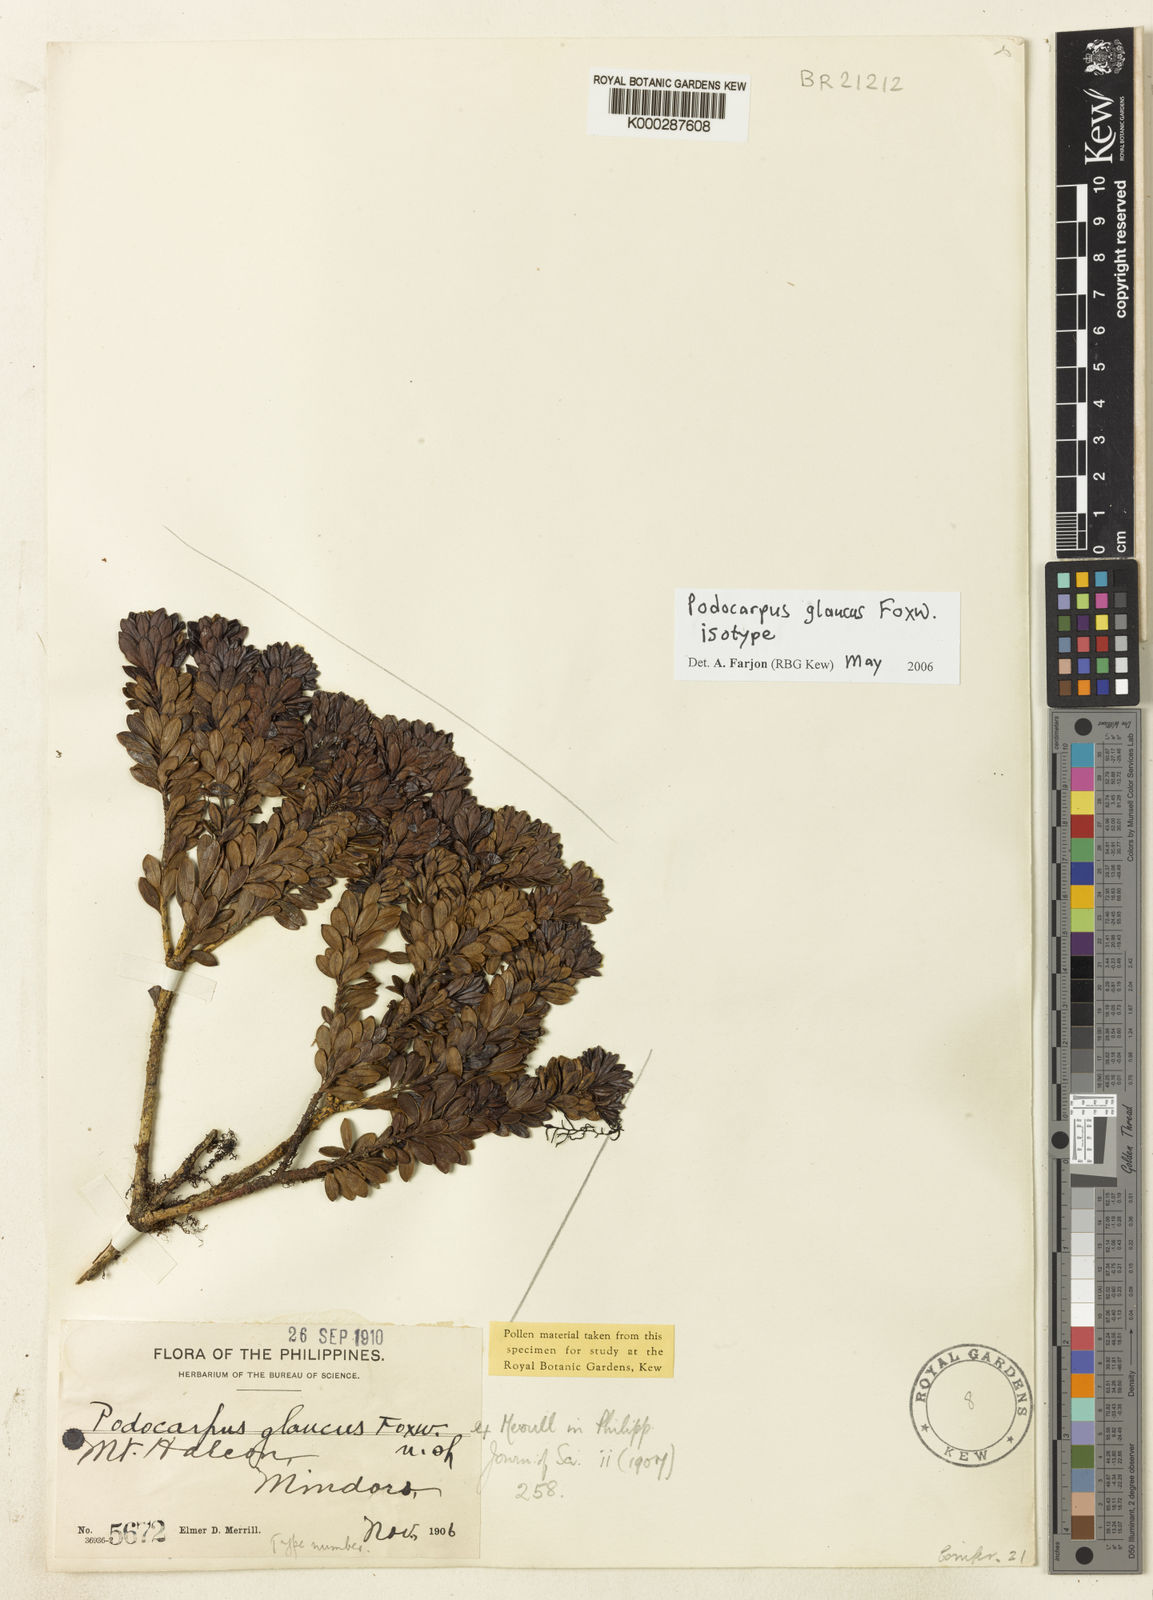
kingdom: Plantae
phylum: Tracheophyta
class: Pinopsida
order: Pinales
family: Podocarpaceae
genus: Podocarpus
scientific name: Podocarpus glaucus
